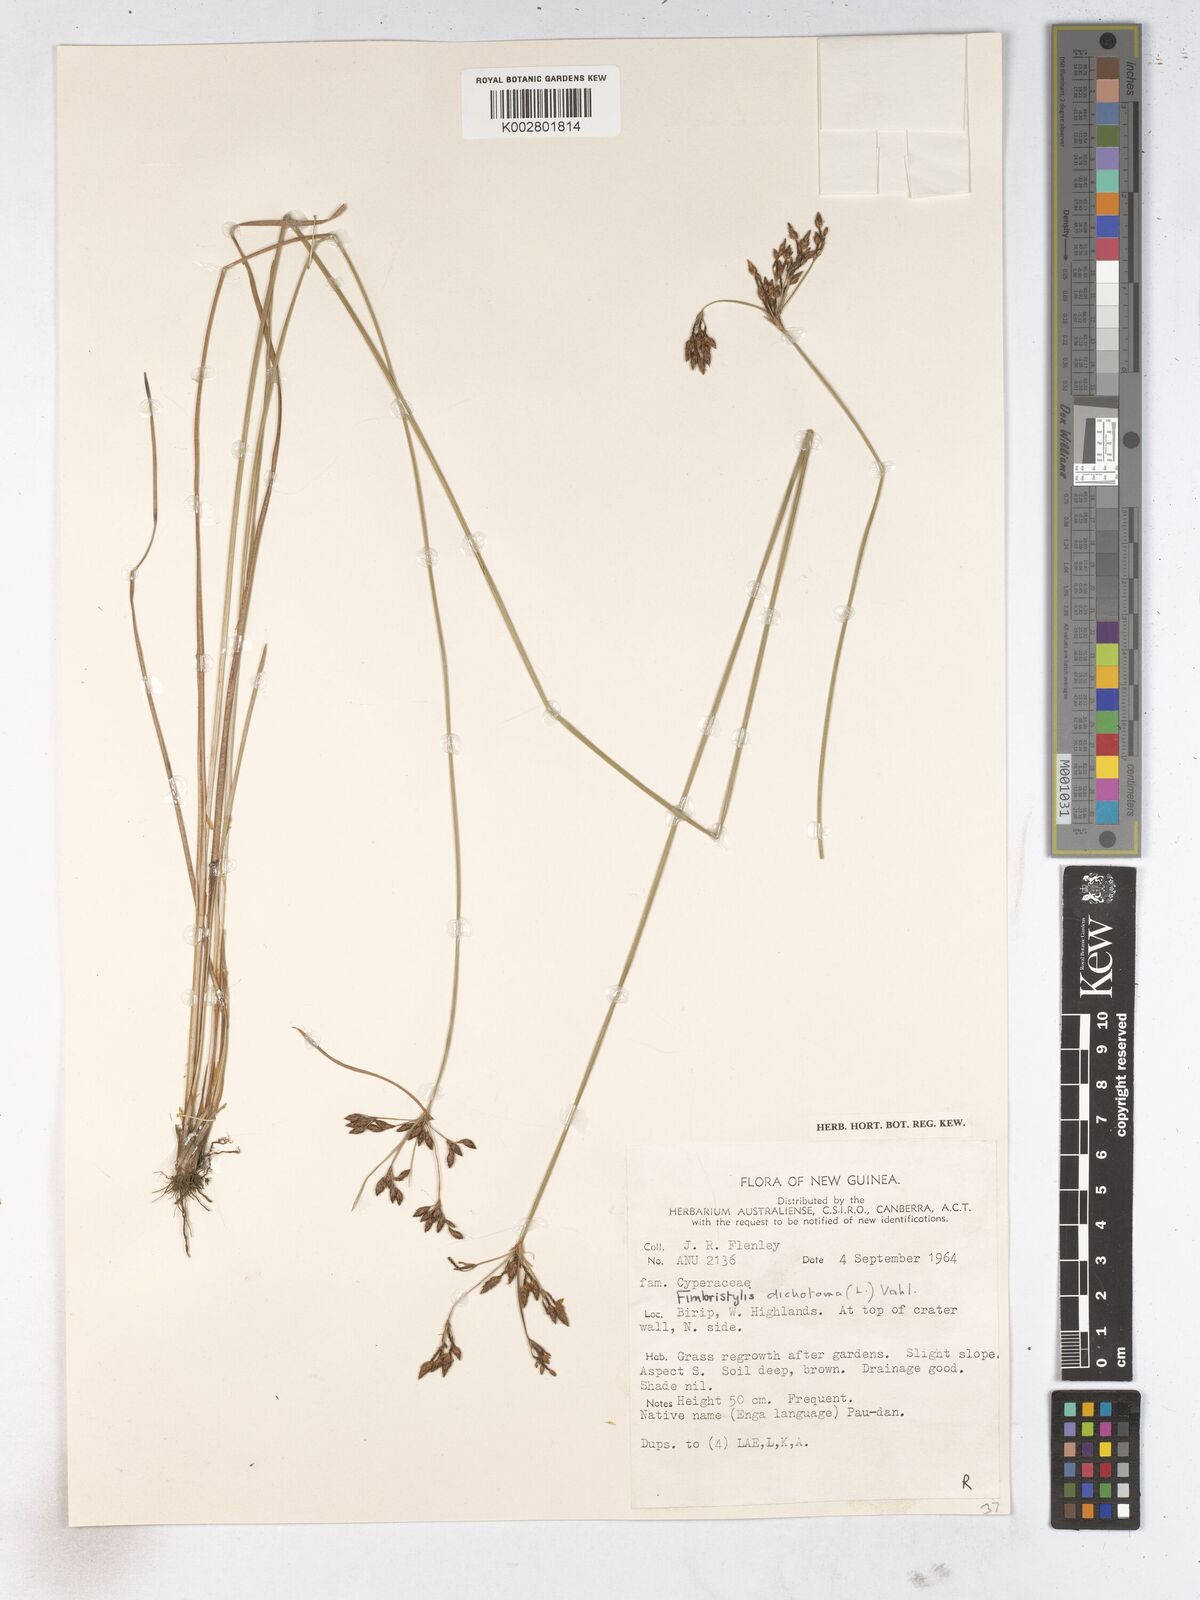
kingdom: Plantae
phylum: Tracheophyta
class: Liliopsida
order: Poales
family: Cyperaceae
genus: Fimbristylis
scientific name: Fimbristylis dichotoma
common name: Forked fimbry
